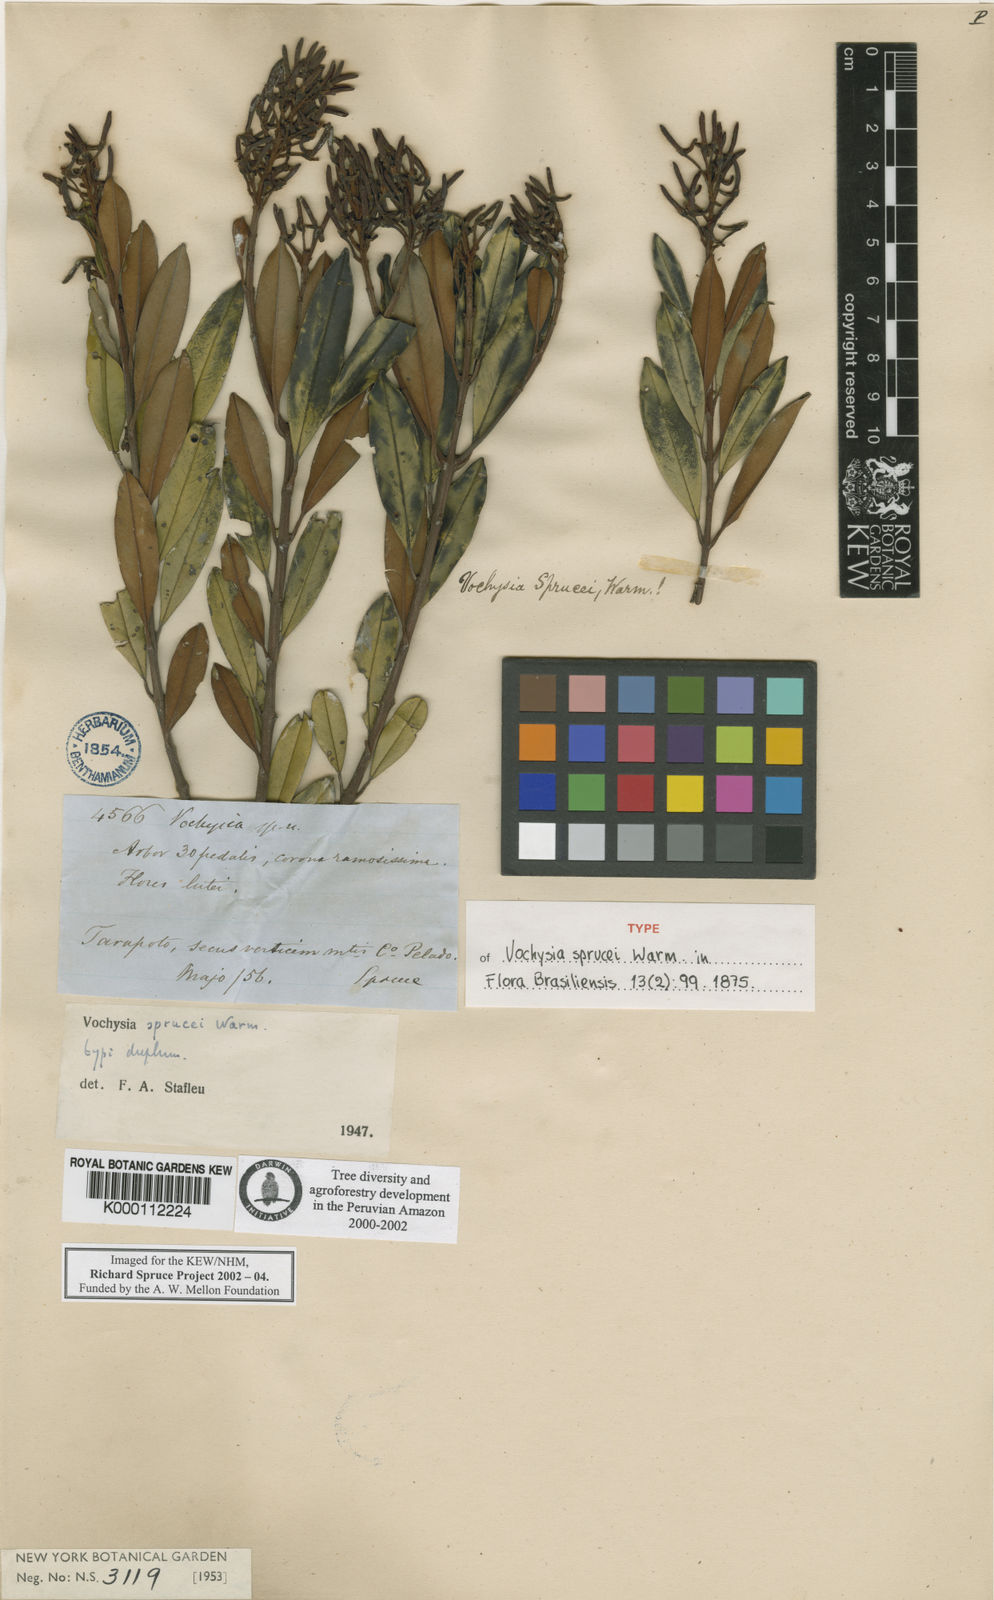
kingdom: Plantae
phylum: Tracheophyta
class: Magnoliopsida
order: Myrtales
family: Vochysiaceae
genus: Vochysia
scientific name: Vochysia sprucei
